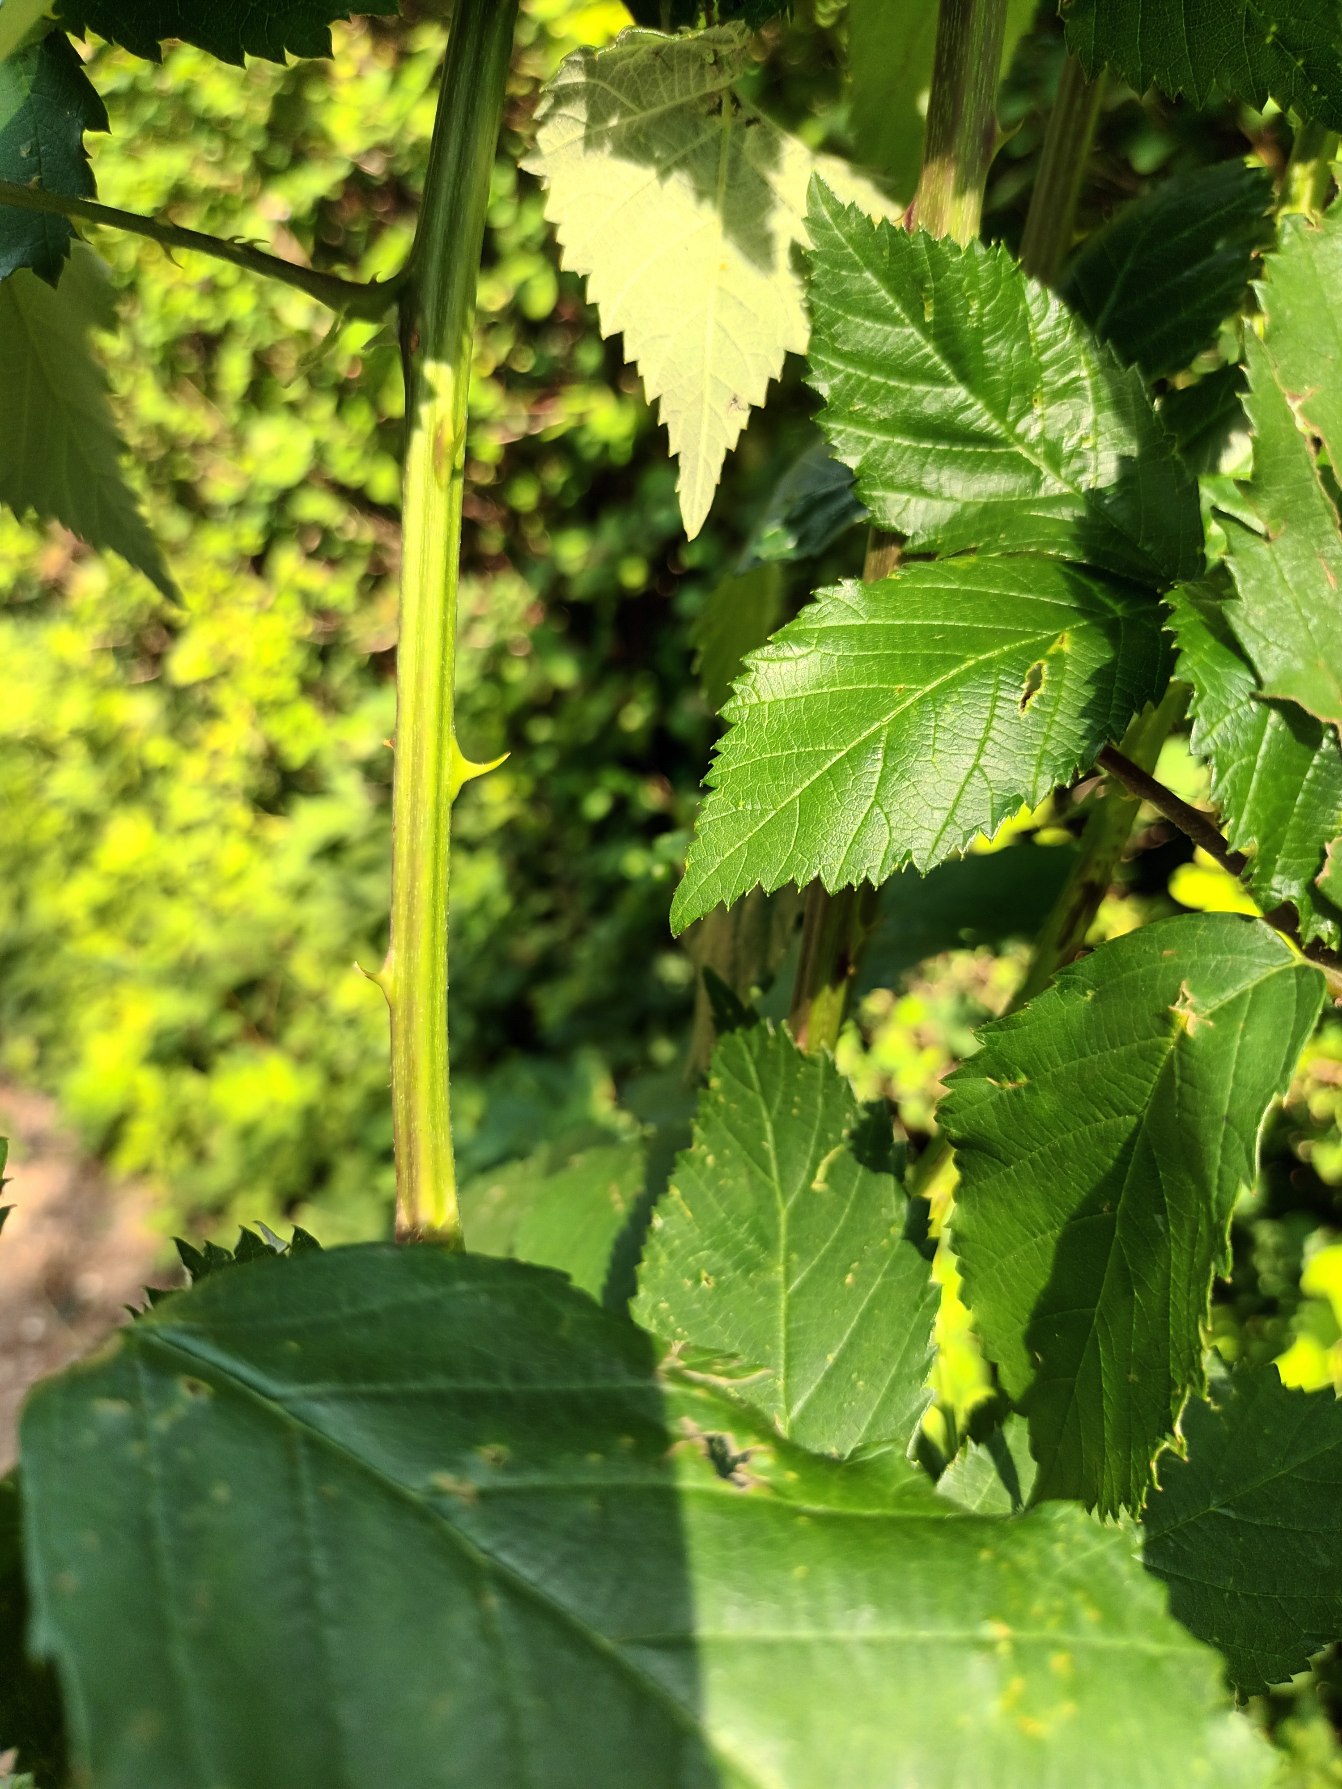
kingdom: Plantae
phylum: Tracheophyta
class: Magnoliopsida
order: Rosales
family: Rosaceae
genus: Rubus
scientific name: Rubus grabowskii
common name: Duskblomstret brombær
